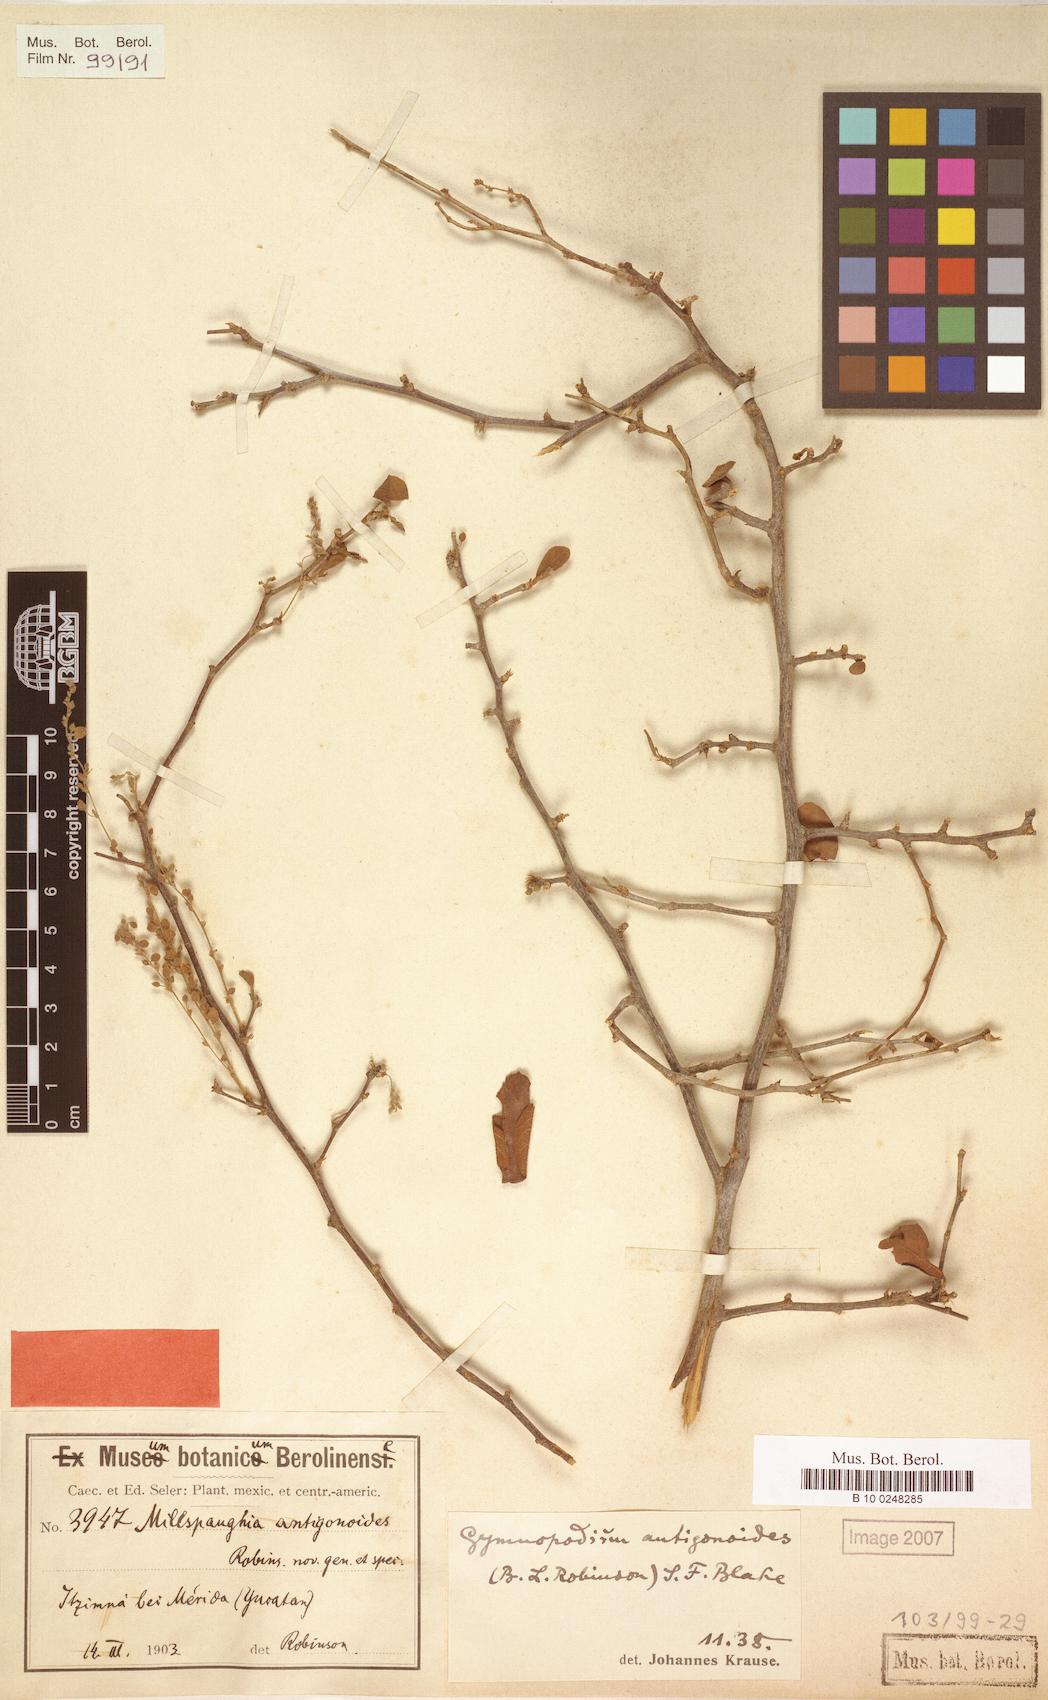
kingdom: Plantae
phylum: Tracheophyta
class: Magnoliopsida
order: Caryophyllales
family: Polygonaceae
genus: Gymnopodium
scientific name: Gymnopodium floribundum
